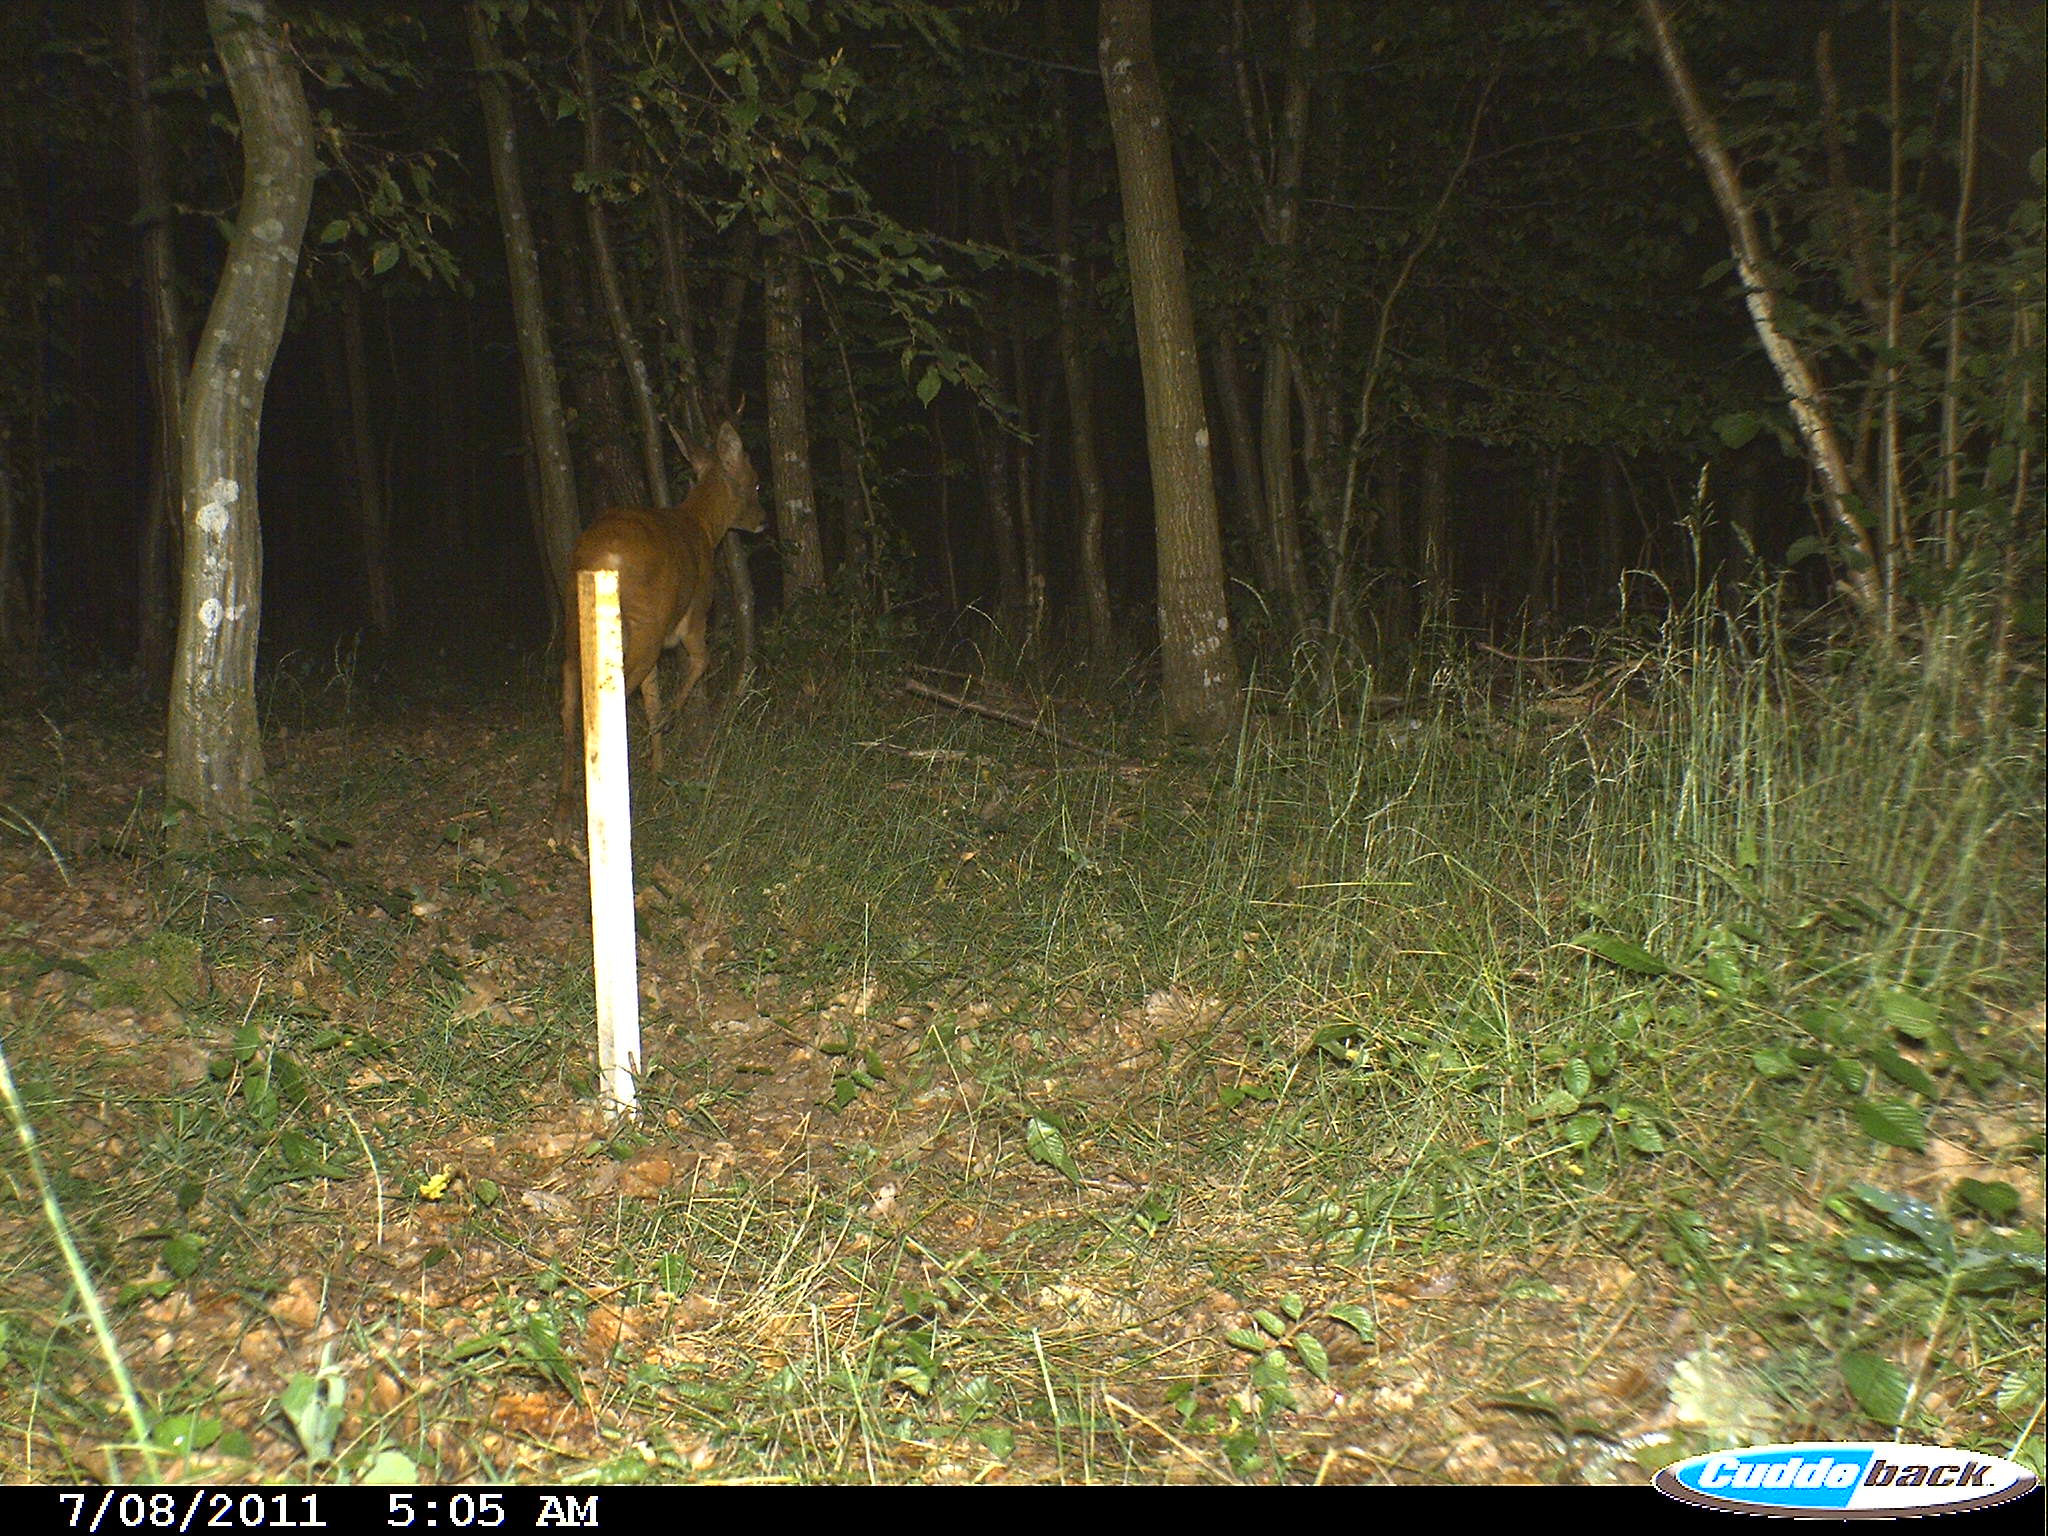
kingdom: Animalia
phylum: Chordata
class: Mammalia
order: Artiodactyla
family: Cervidae
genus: Capreolus
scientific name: Capreolus capreolus
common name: Western roe deer
